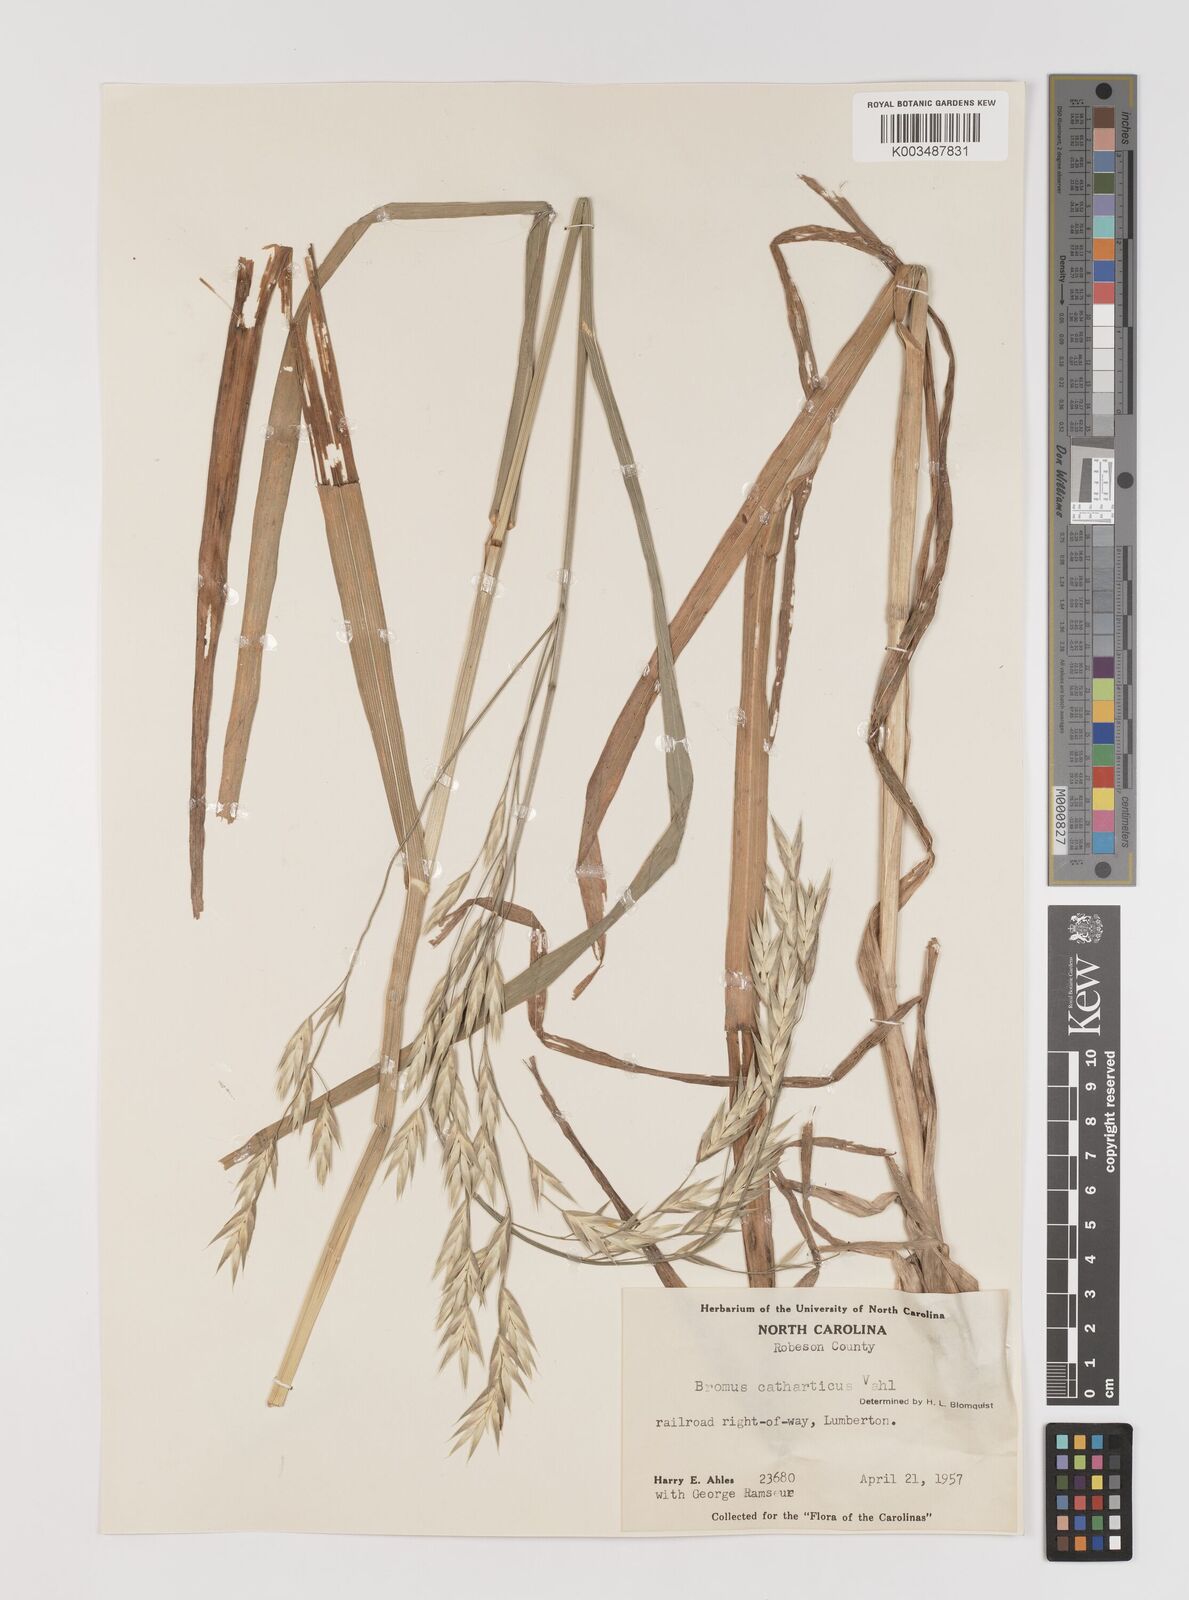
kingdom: Plantae
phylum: Tracheophyta
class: Liliopsida
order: Poales
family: Poaceae
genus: Bromus
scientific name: Bromus catharticus
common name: Rescuegrass
